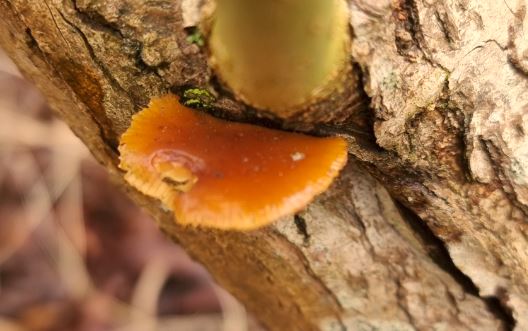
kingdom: Fungi
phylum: Basidiomycota
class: Agaricomycetes
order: Agaricales
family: Physalacriaceae
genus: Flammulina
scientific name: Flammulina
